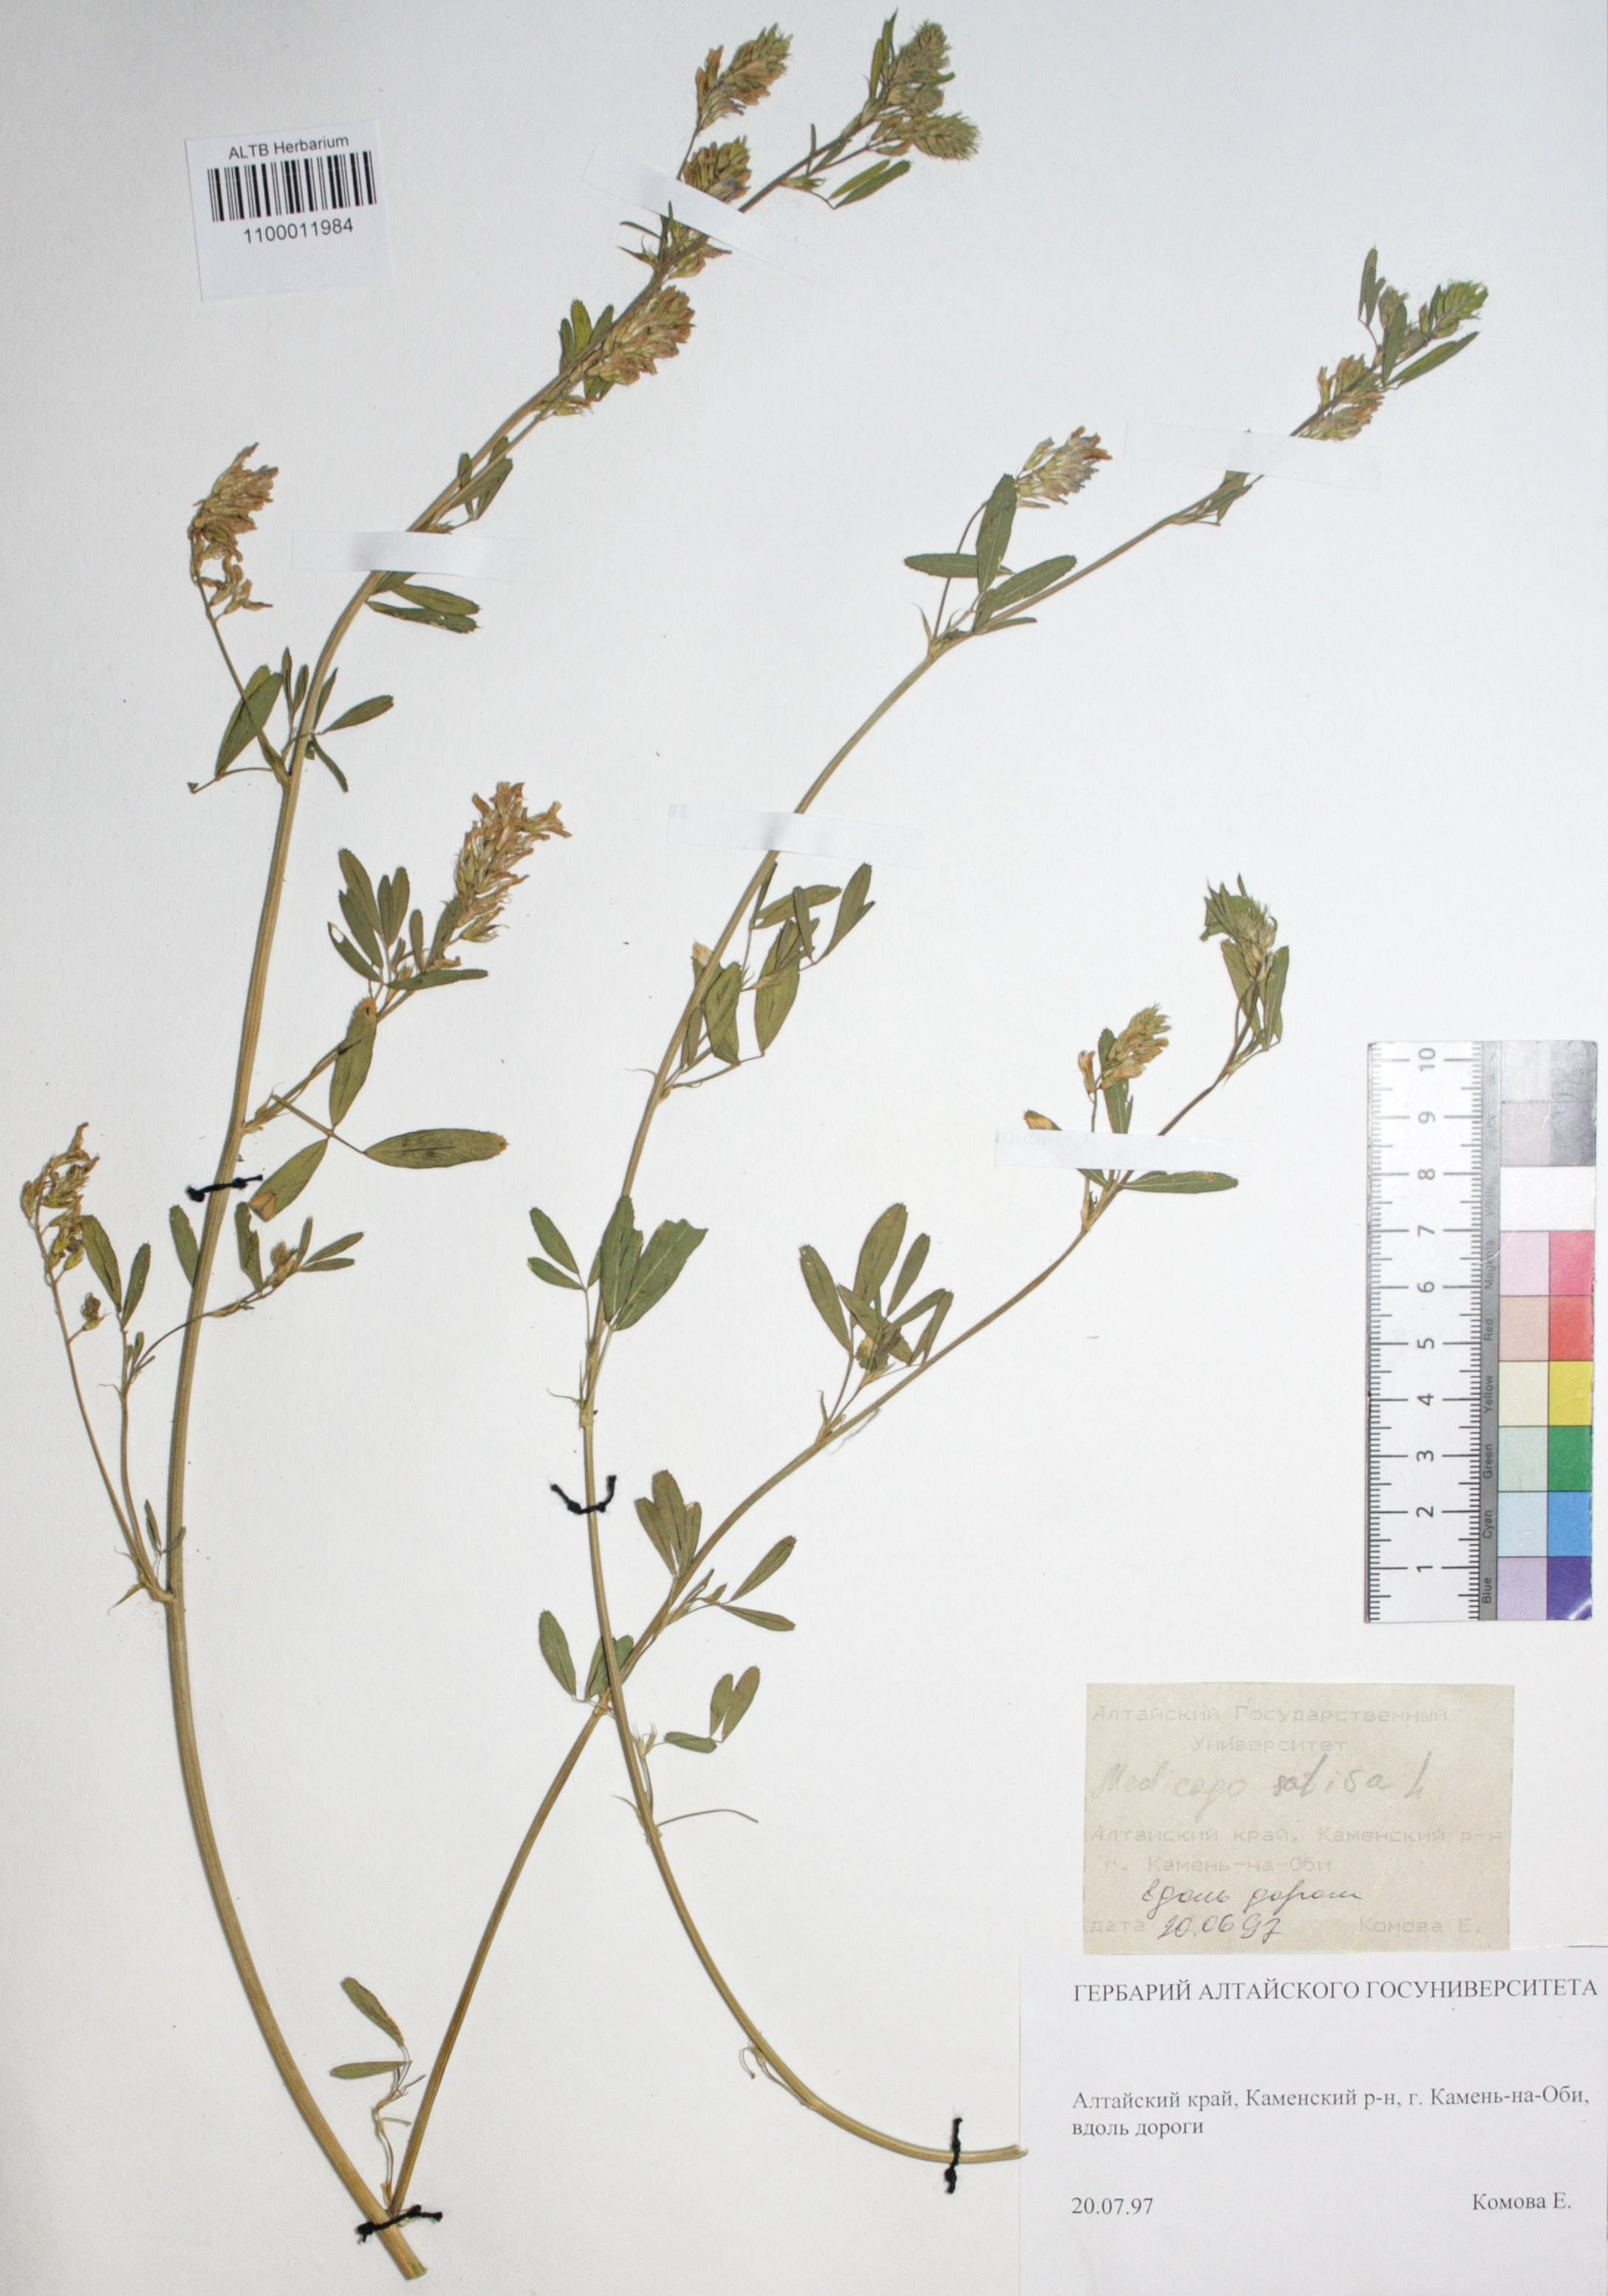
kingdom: Plantae
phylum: Tracheophyta
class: Magnoliopsida
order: Fabales
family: Fabaceae
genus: Medicago
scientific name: Medicago sativa
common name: Alfalfa
